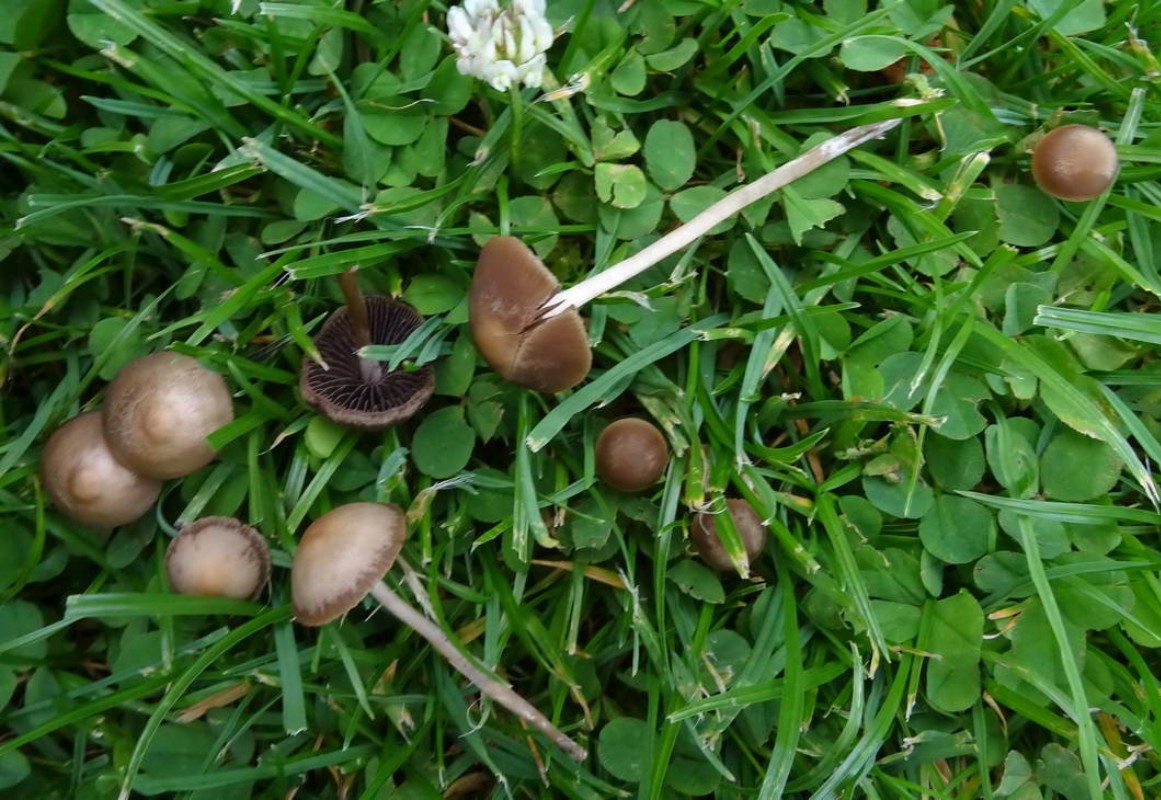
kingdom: Fungi
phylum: Basidiomycota
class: Agaricomycetes
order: Agaricales
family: Bolbitiaceae
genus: Panaeolina
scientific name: Panaeolina foenisecii
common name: høslætsvamp
